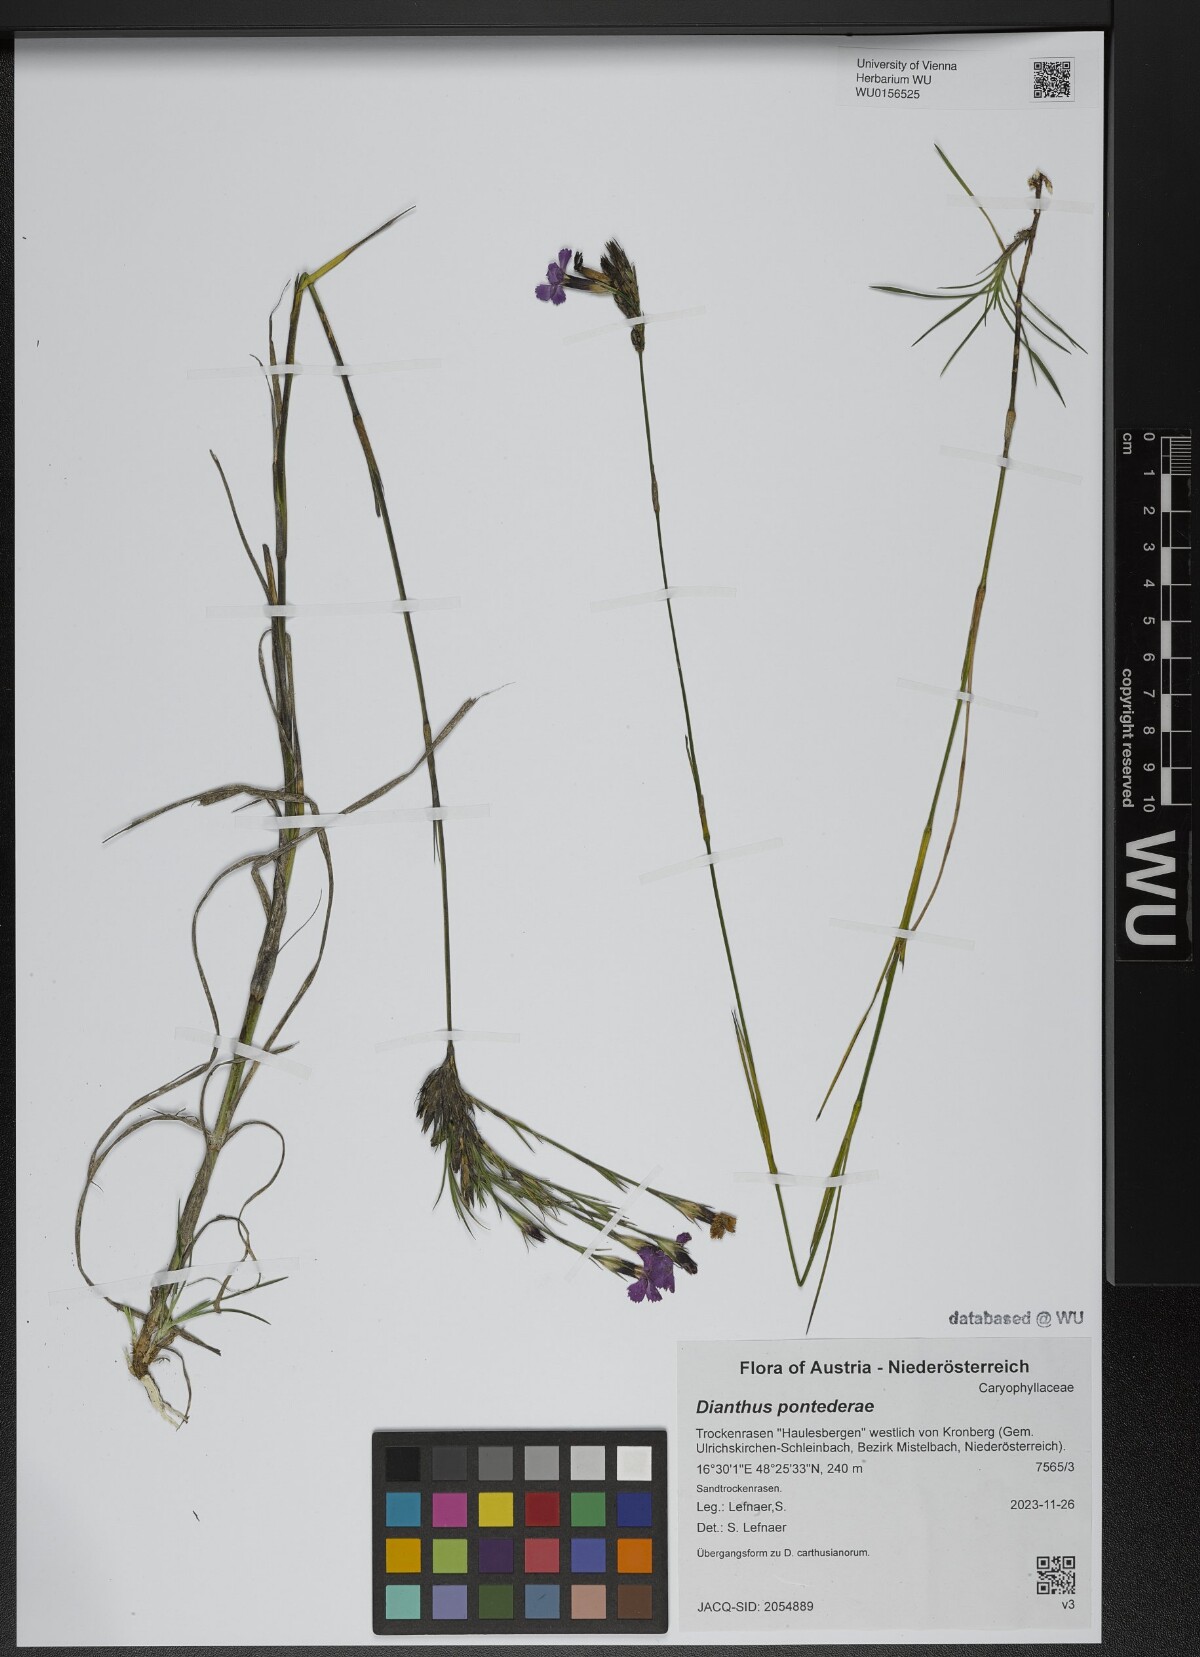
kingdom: Plantae
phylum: Tracheophyta
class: Magnoliopsida
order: Caryophyllales
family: Caryophyllaceae
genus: Dianthus
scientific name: Dianthus pontederae
